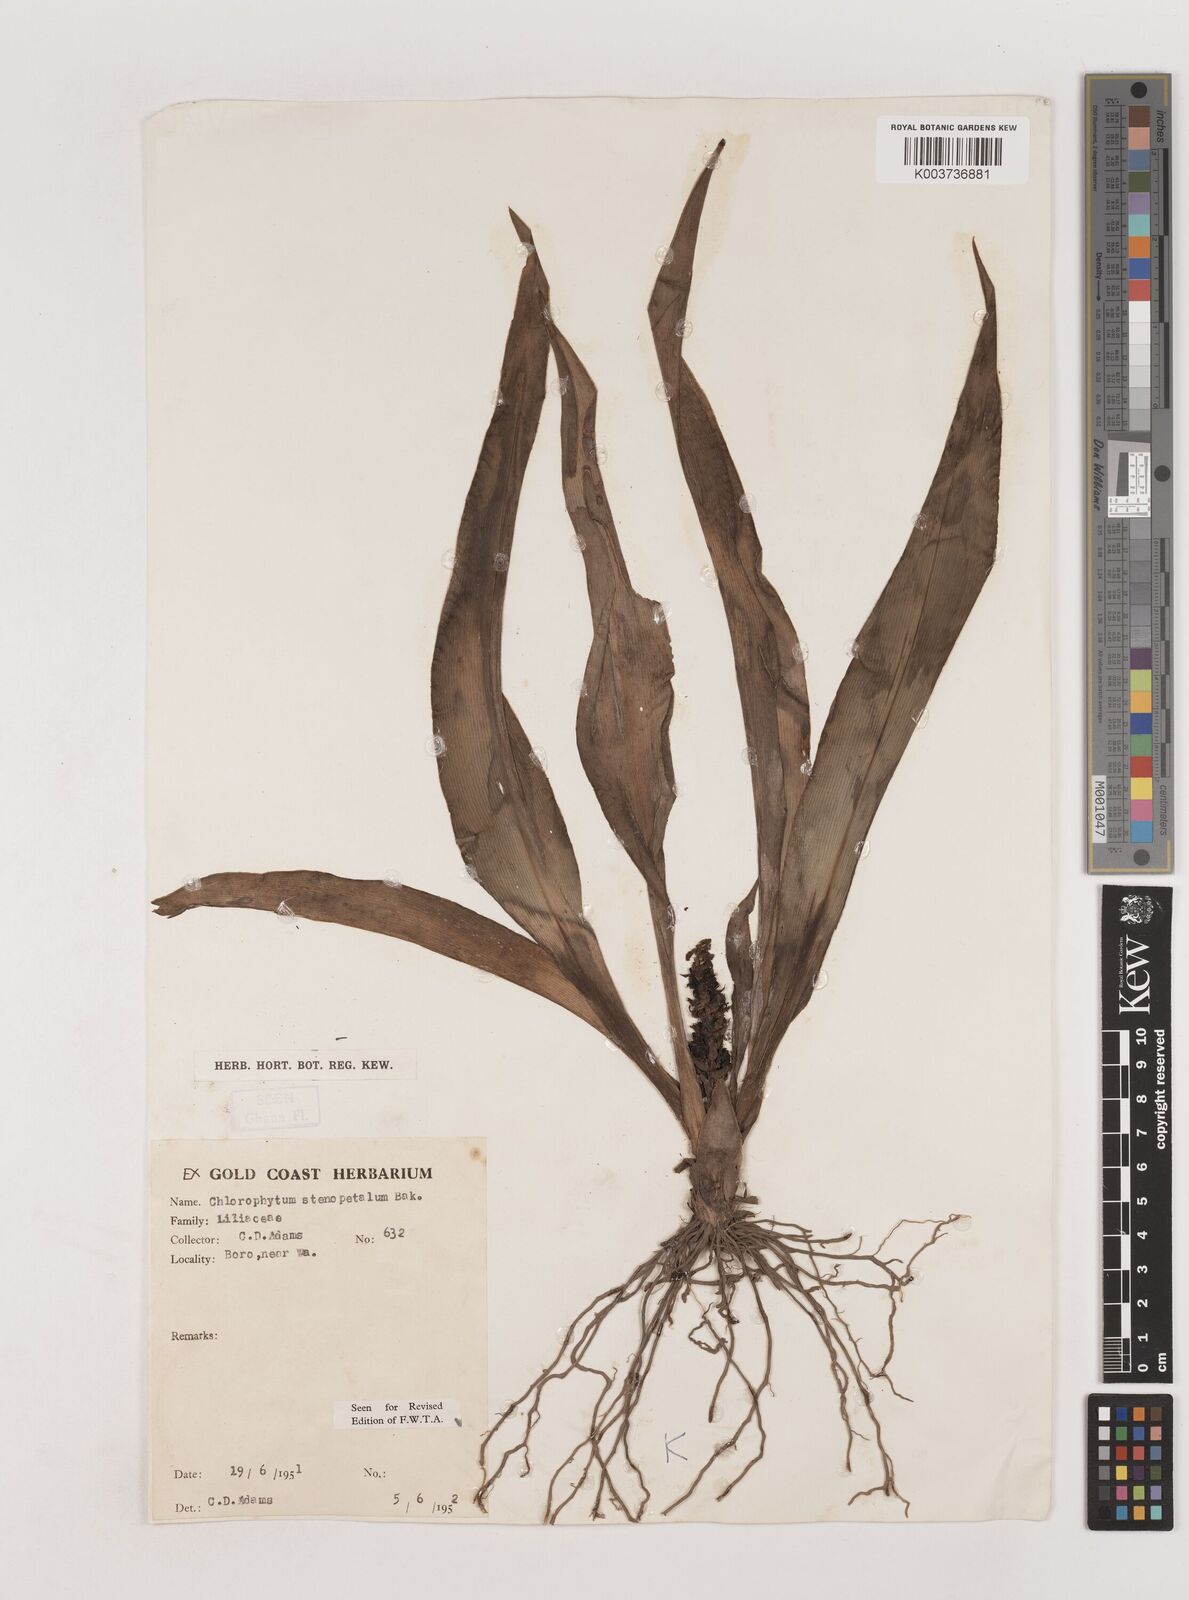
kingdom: Plantae
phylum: Tracheophyta
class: Liliopsida
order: Asparagales
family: Asparagaceae
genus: Chlorophytum
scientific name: Chlorophytum stenopetalum
